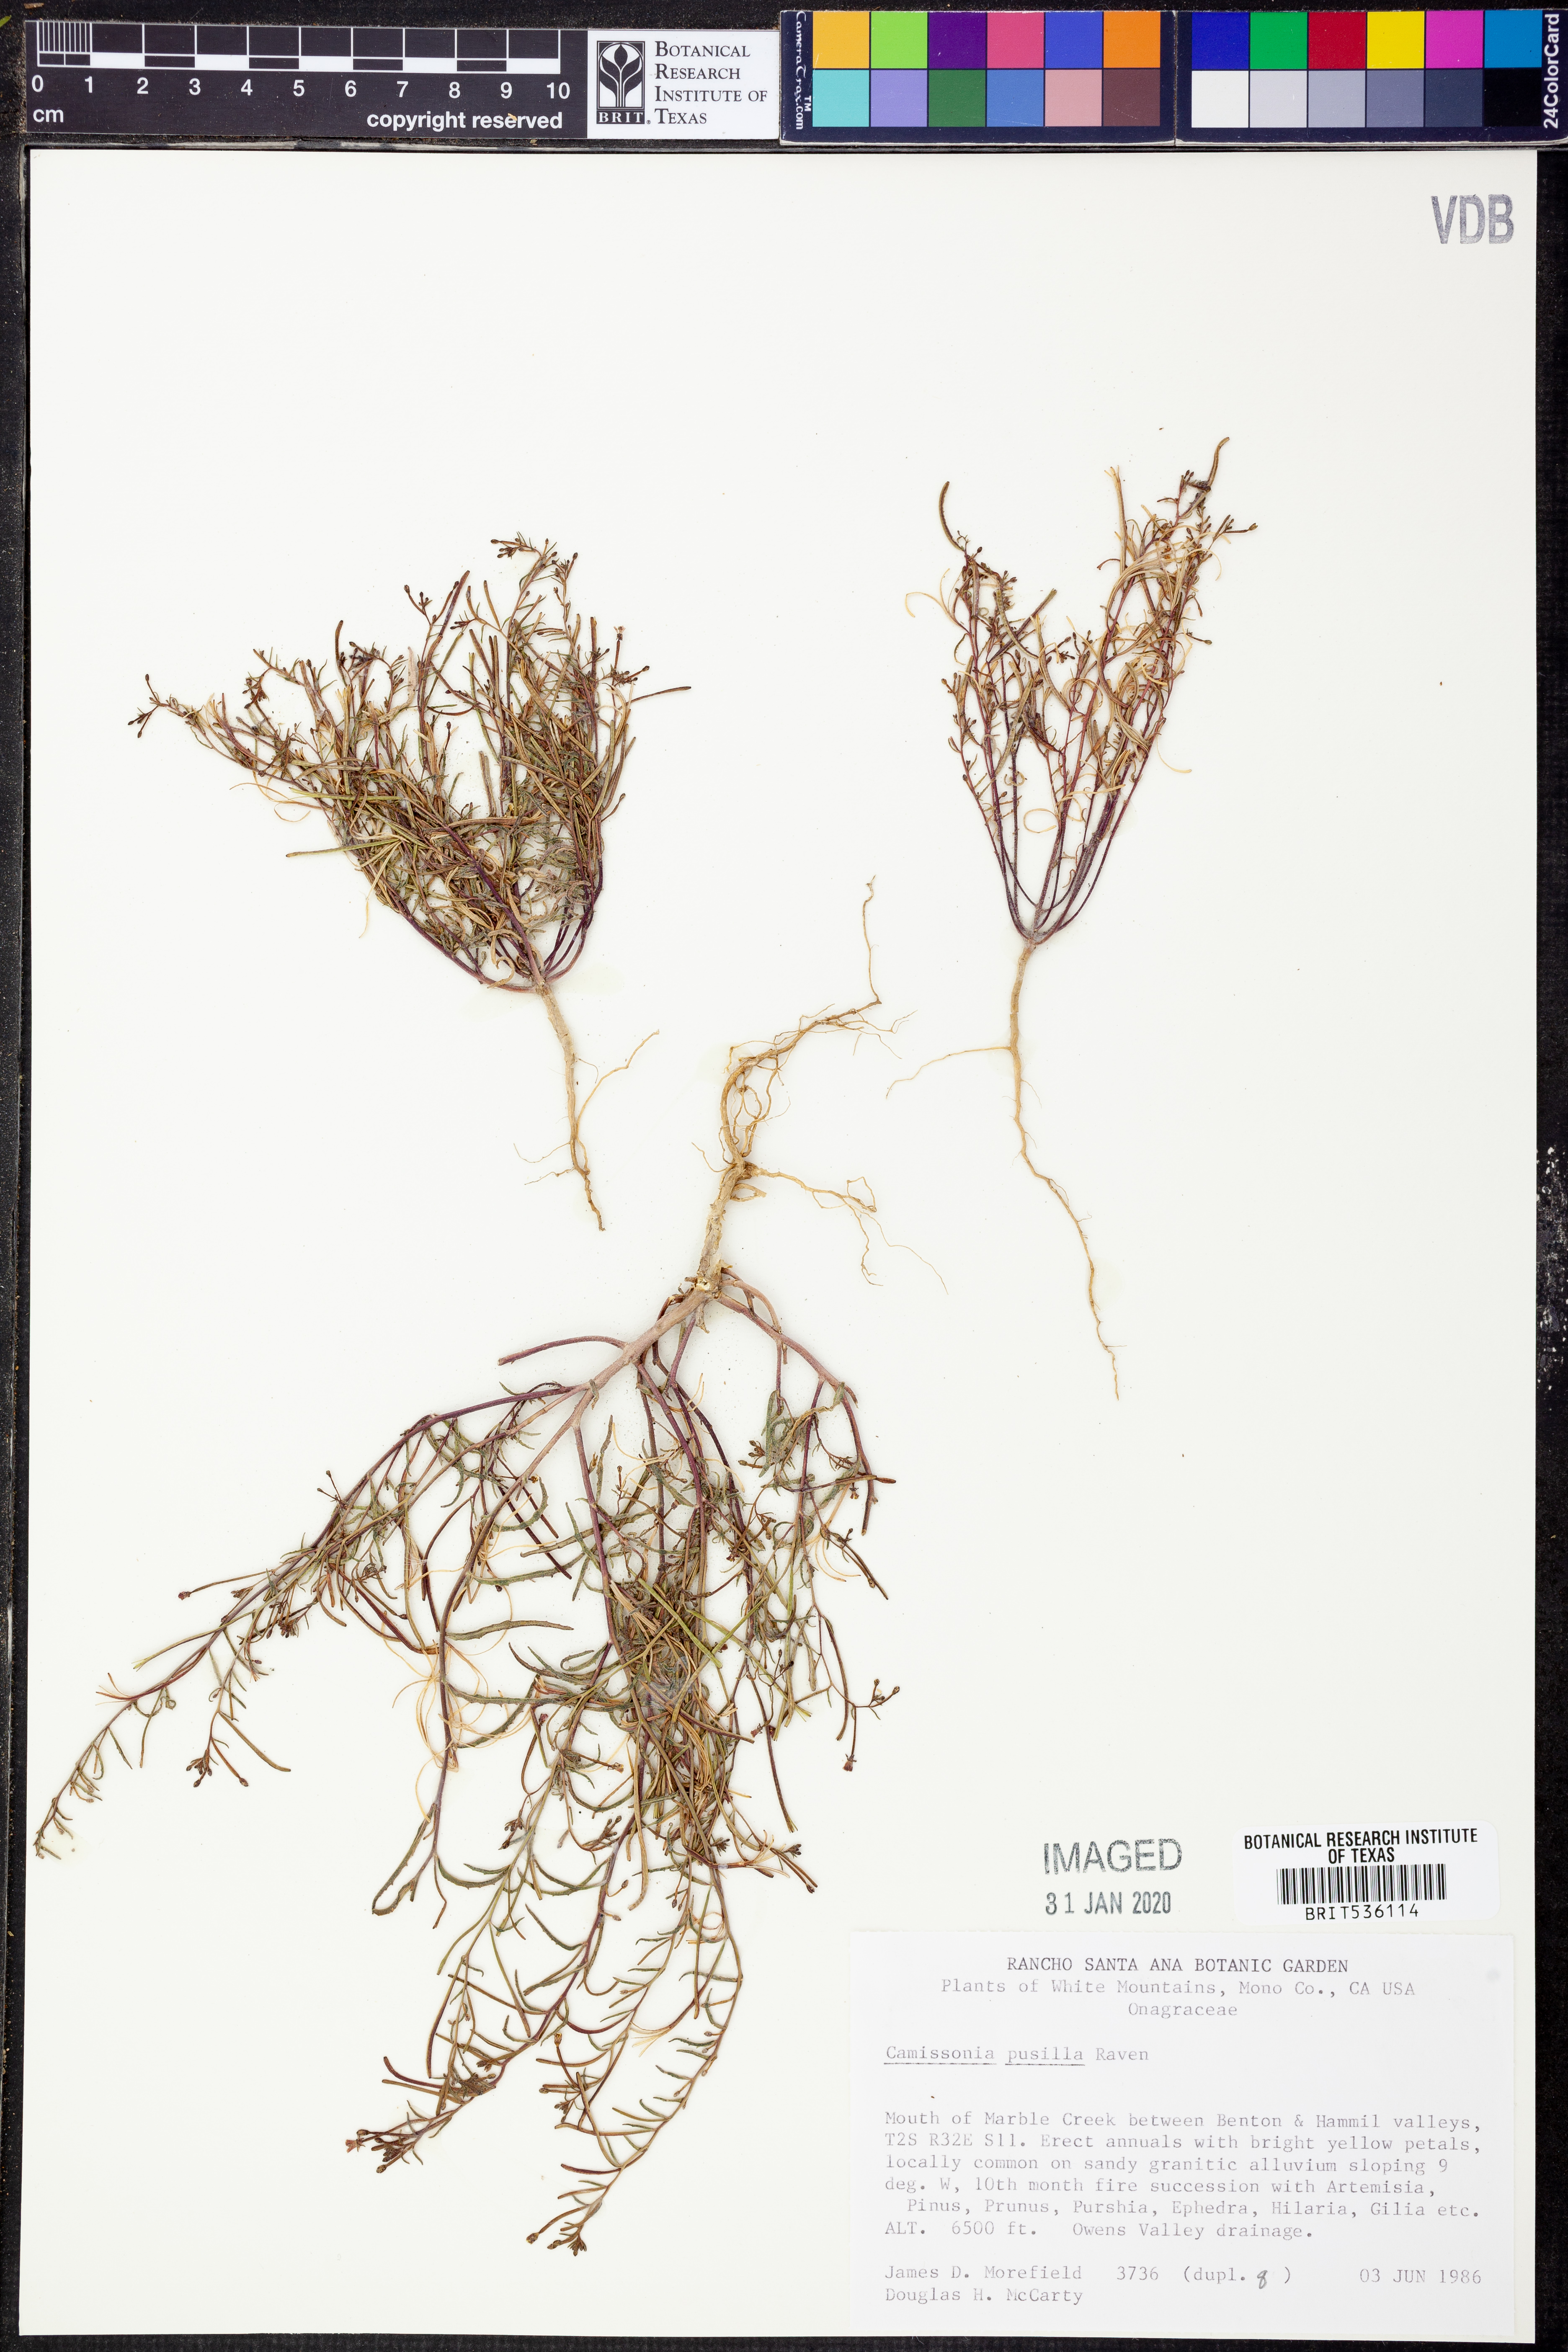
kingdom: Plantae
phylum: Tracheophyta
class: Magnoliopsida
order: Myrtales
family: Onagraceae
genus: Camissonia
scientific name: Camissonia pusilla
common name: Obscure camissonia
